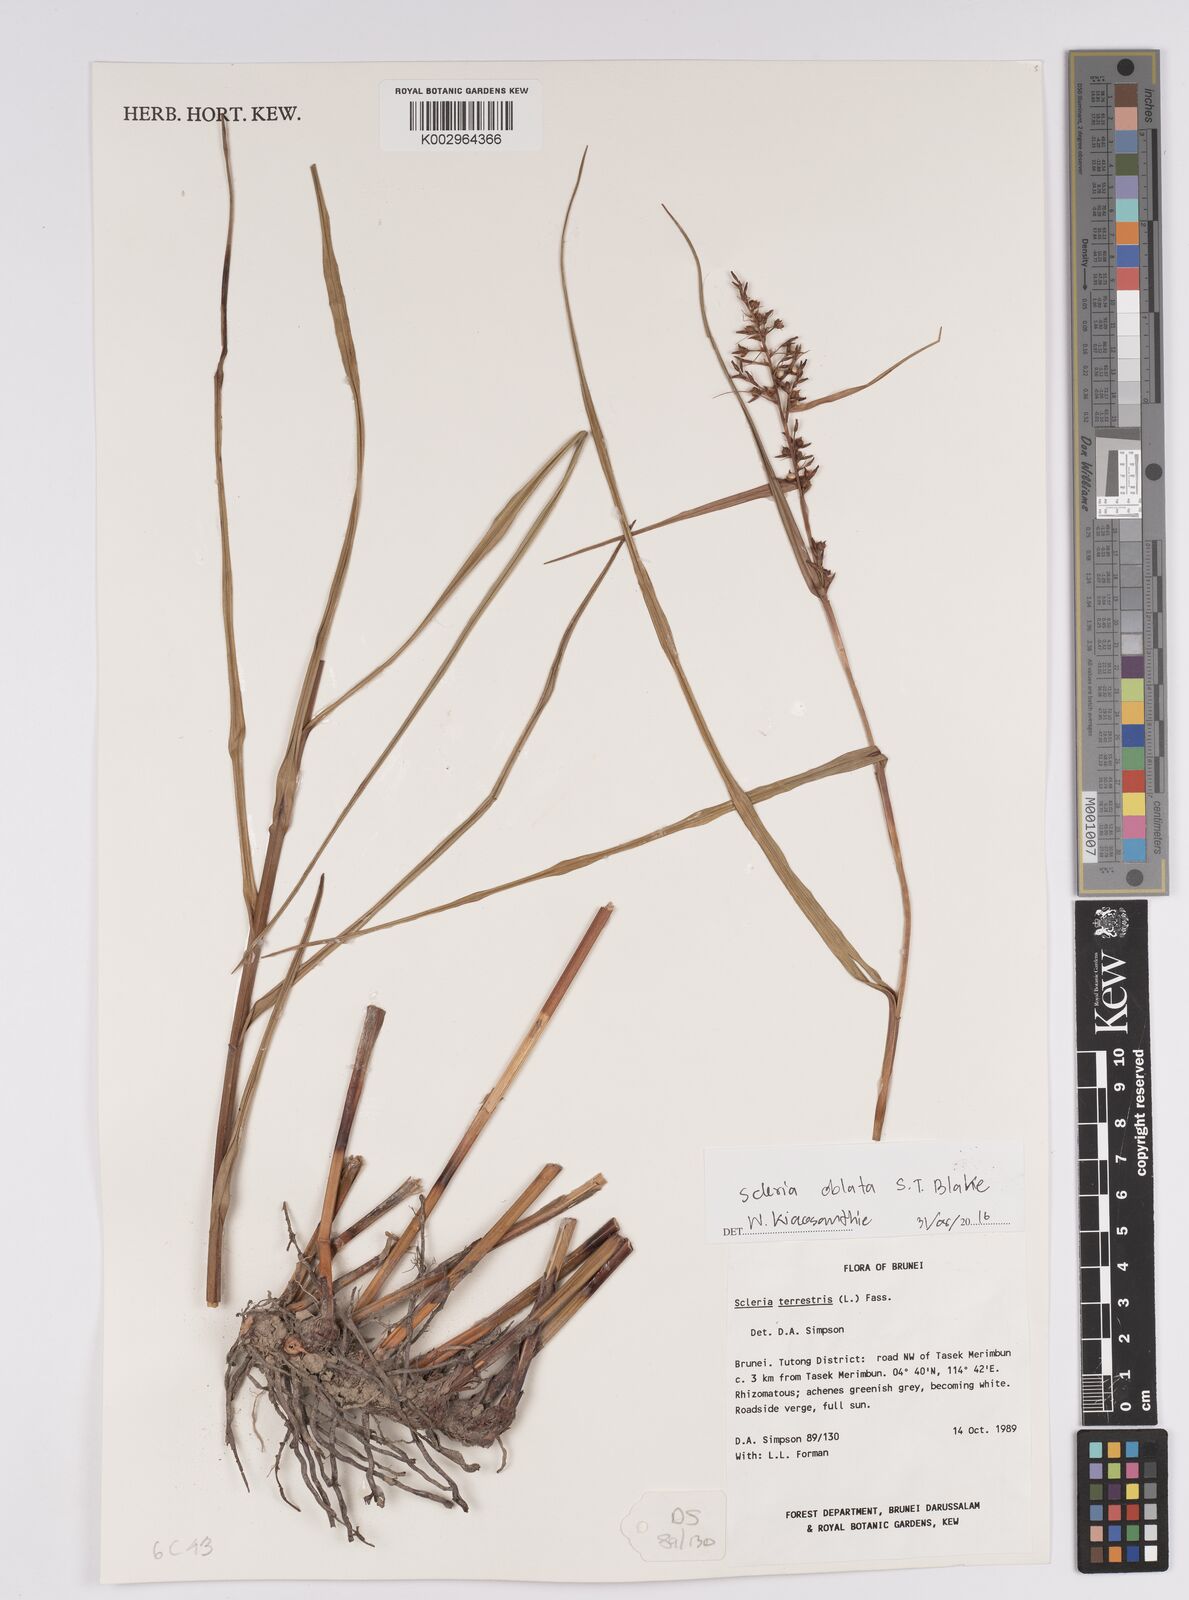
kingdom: Plantae
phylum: Tracheophyta
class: Liliopsida
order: Poales
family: Cyperaceae
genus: Scleria
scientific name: Scleria oblata
